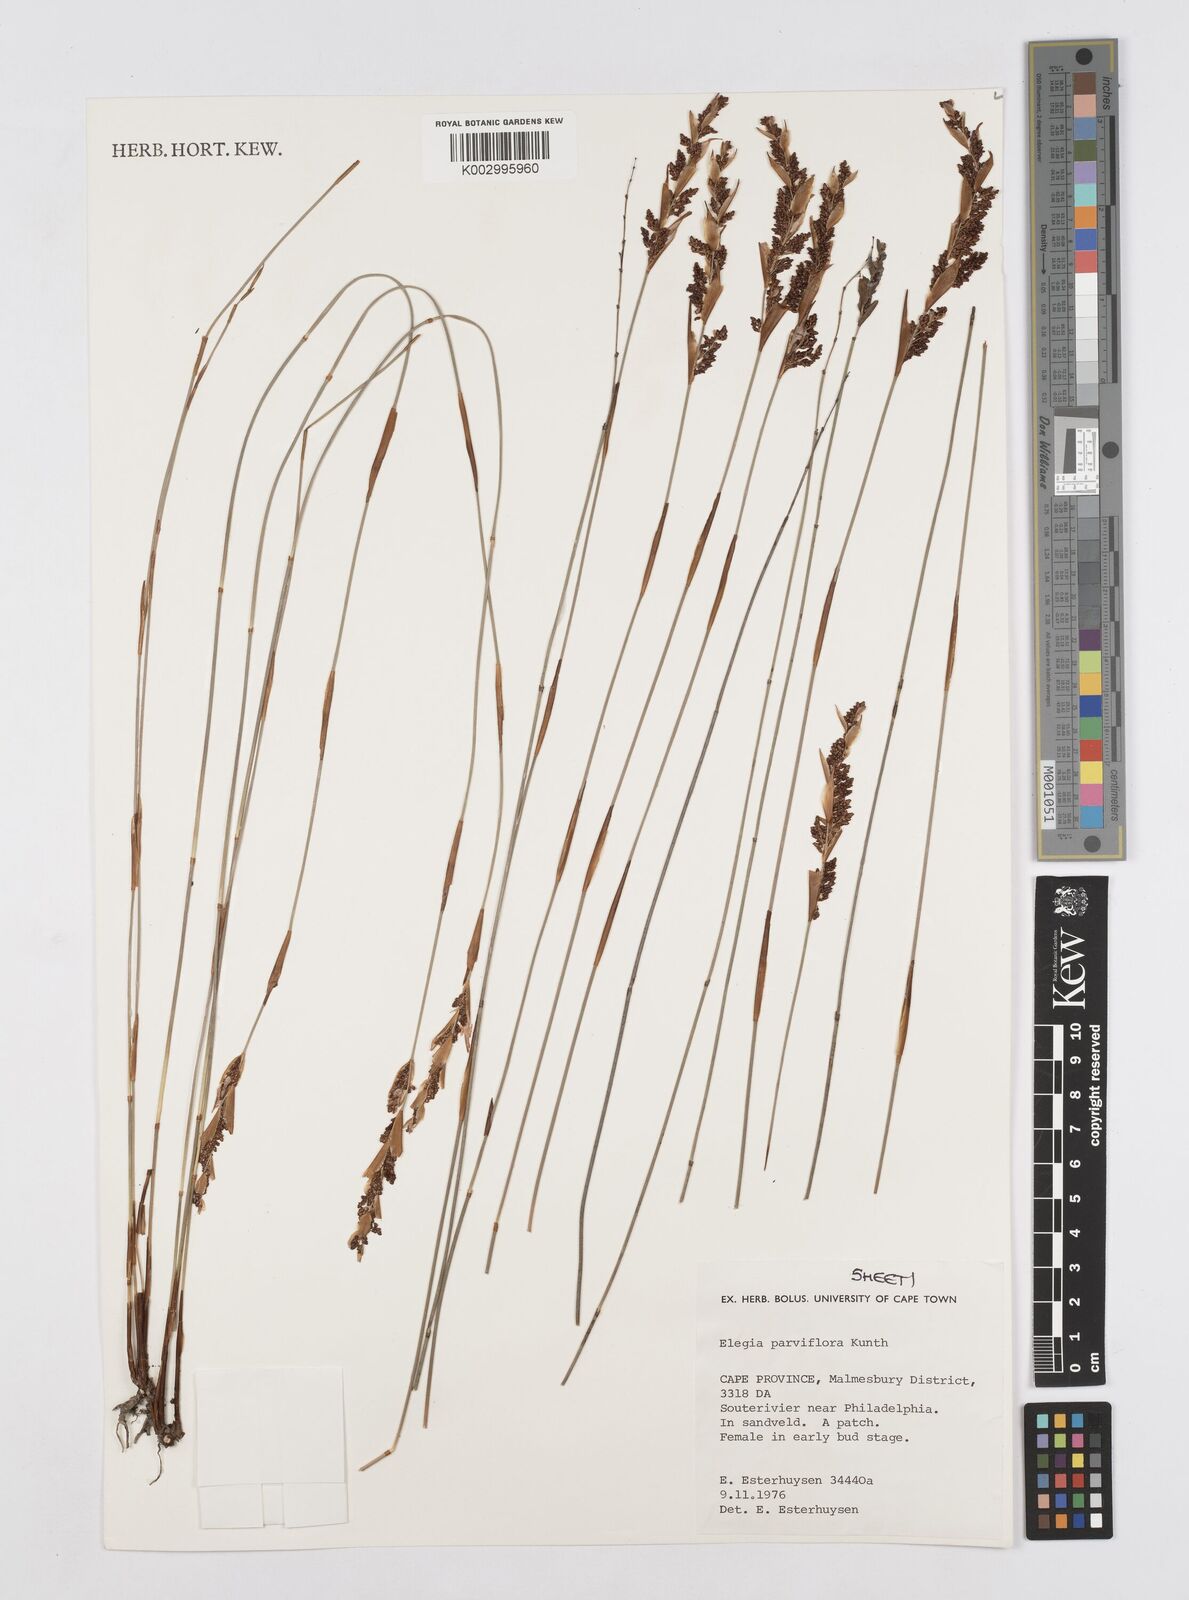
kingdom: Plantae
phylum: Tracheophyta
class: Liliopsida
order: Poales
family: Restionaceae
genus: Cannomois
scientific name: Cannomois parviflora
